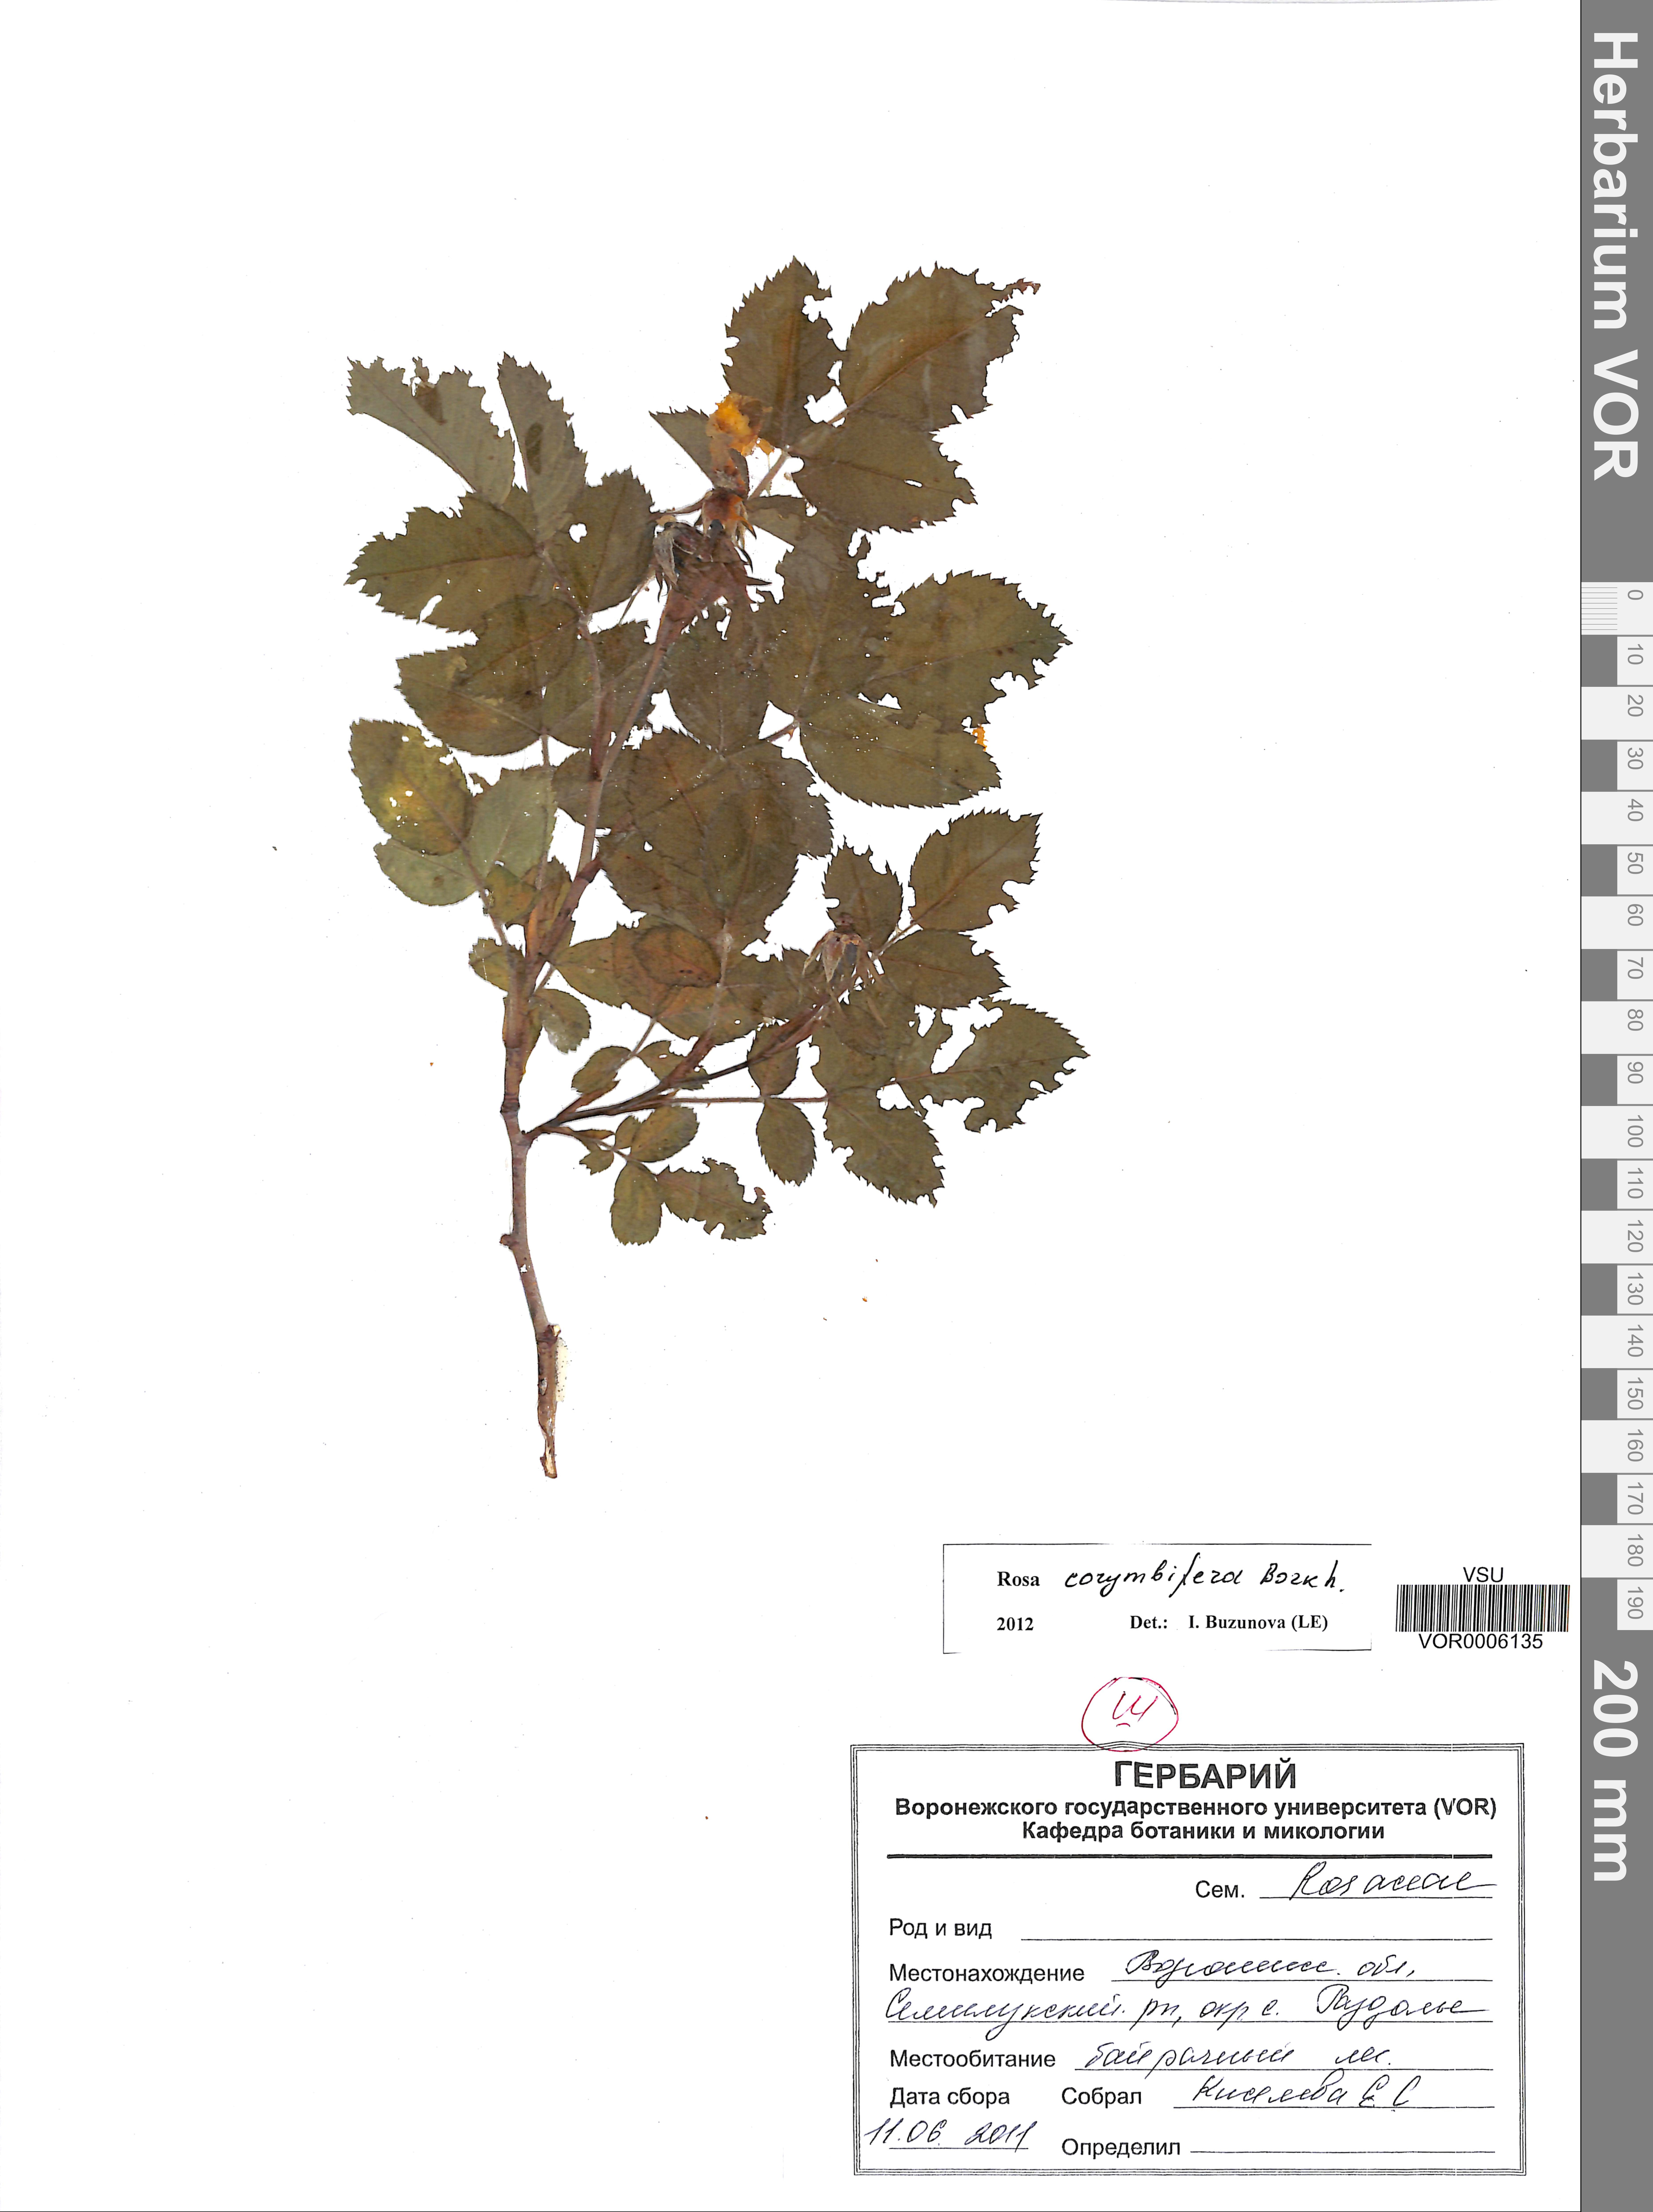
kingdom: Plantae
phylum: Tracheophyta
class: Magnoliopsida
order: Rosales
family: Rosaceae
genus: Rosa
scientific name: Rosa corymbifera
